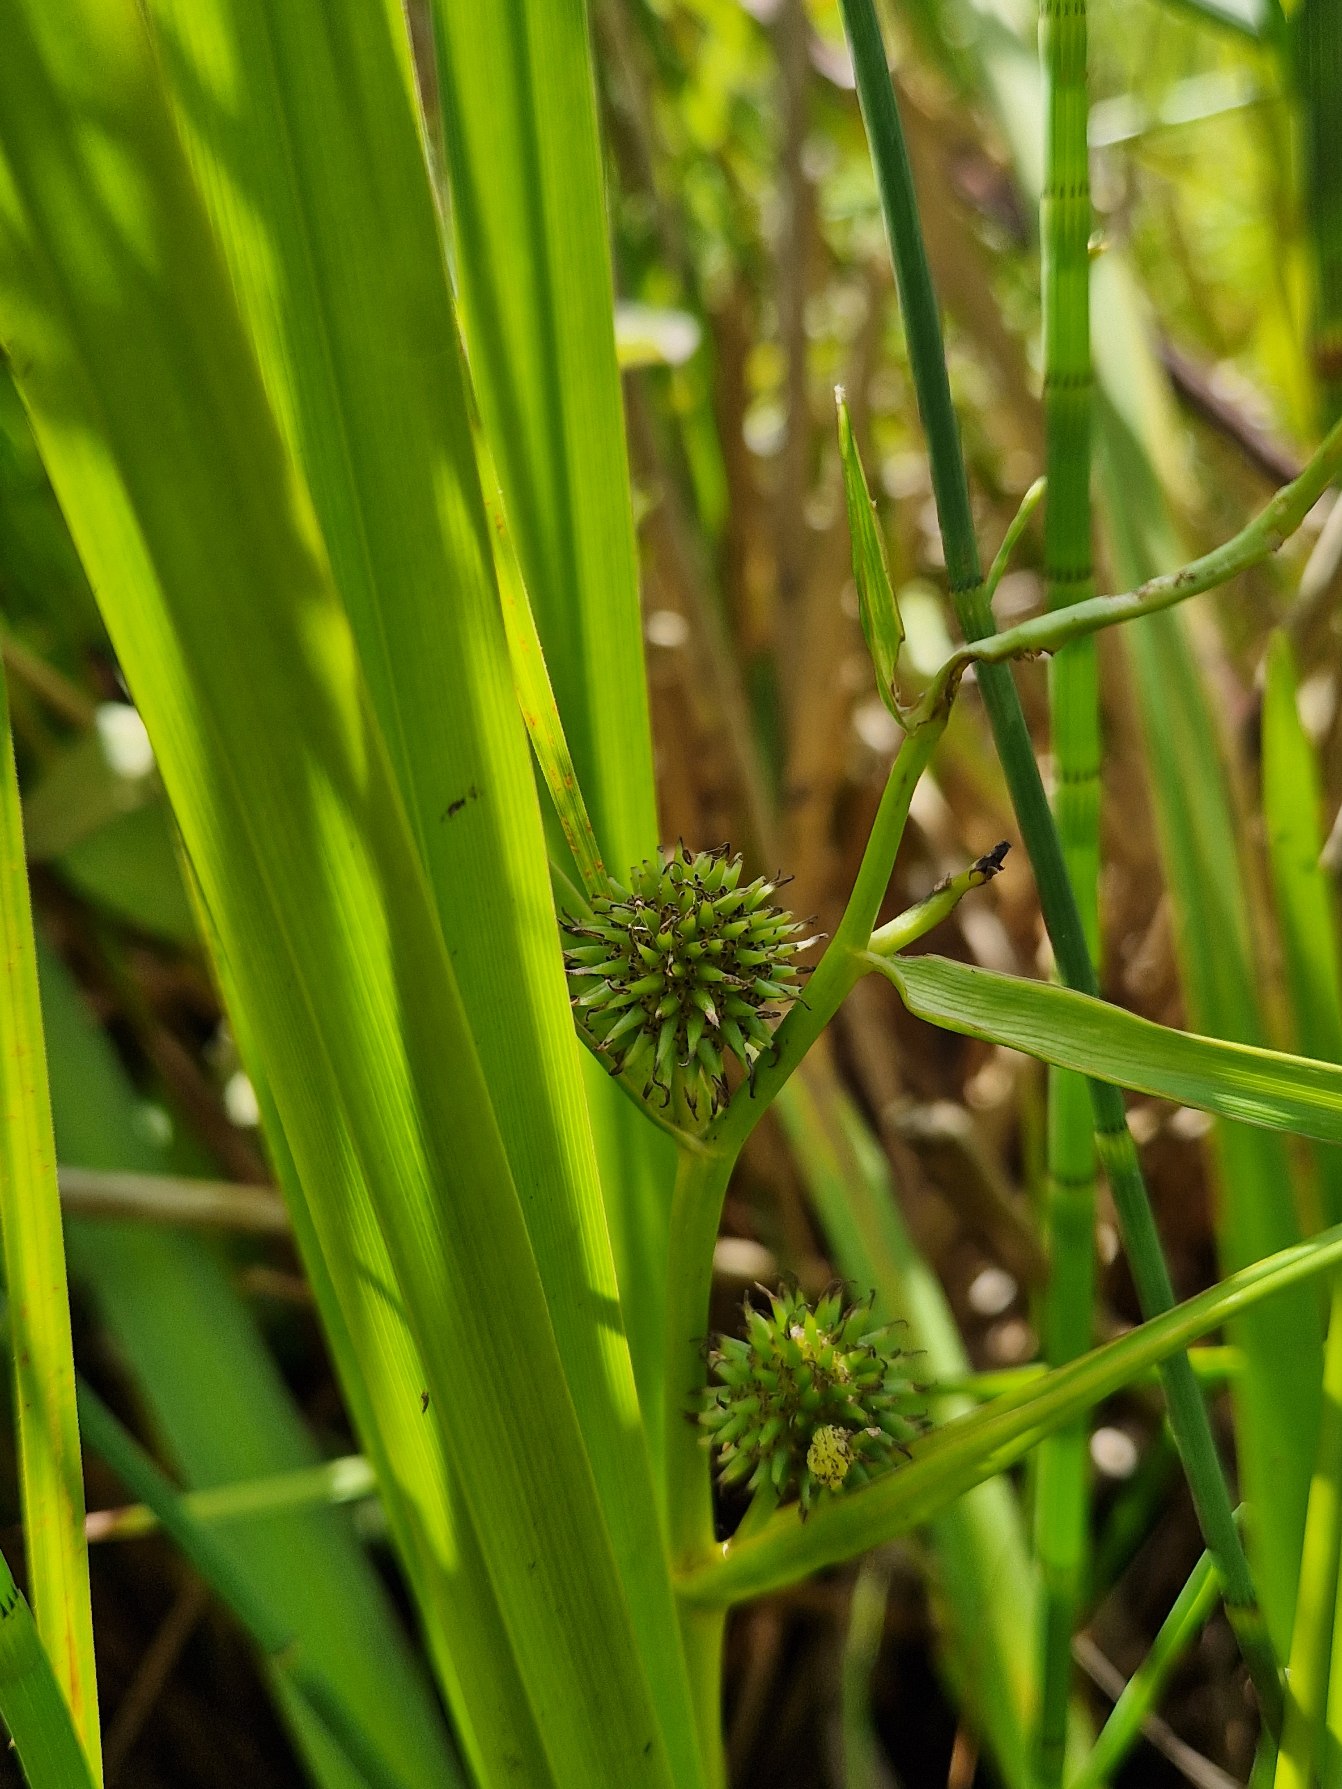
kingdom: Plantae
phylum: Tracheophyta
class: Liliopsida
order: Poales
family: Typhaceae
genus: Sparganium
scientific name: Sparganium erectum
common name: Grenet pindsvineknop
